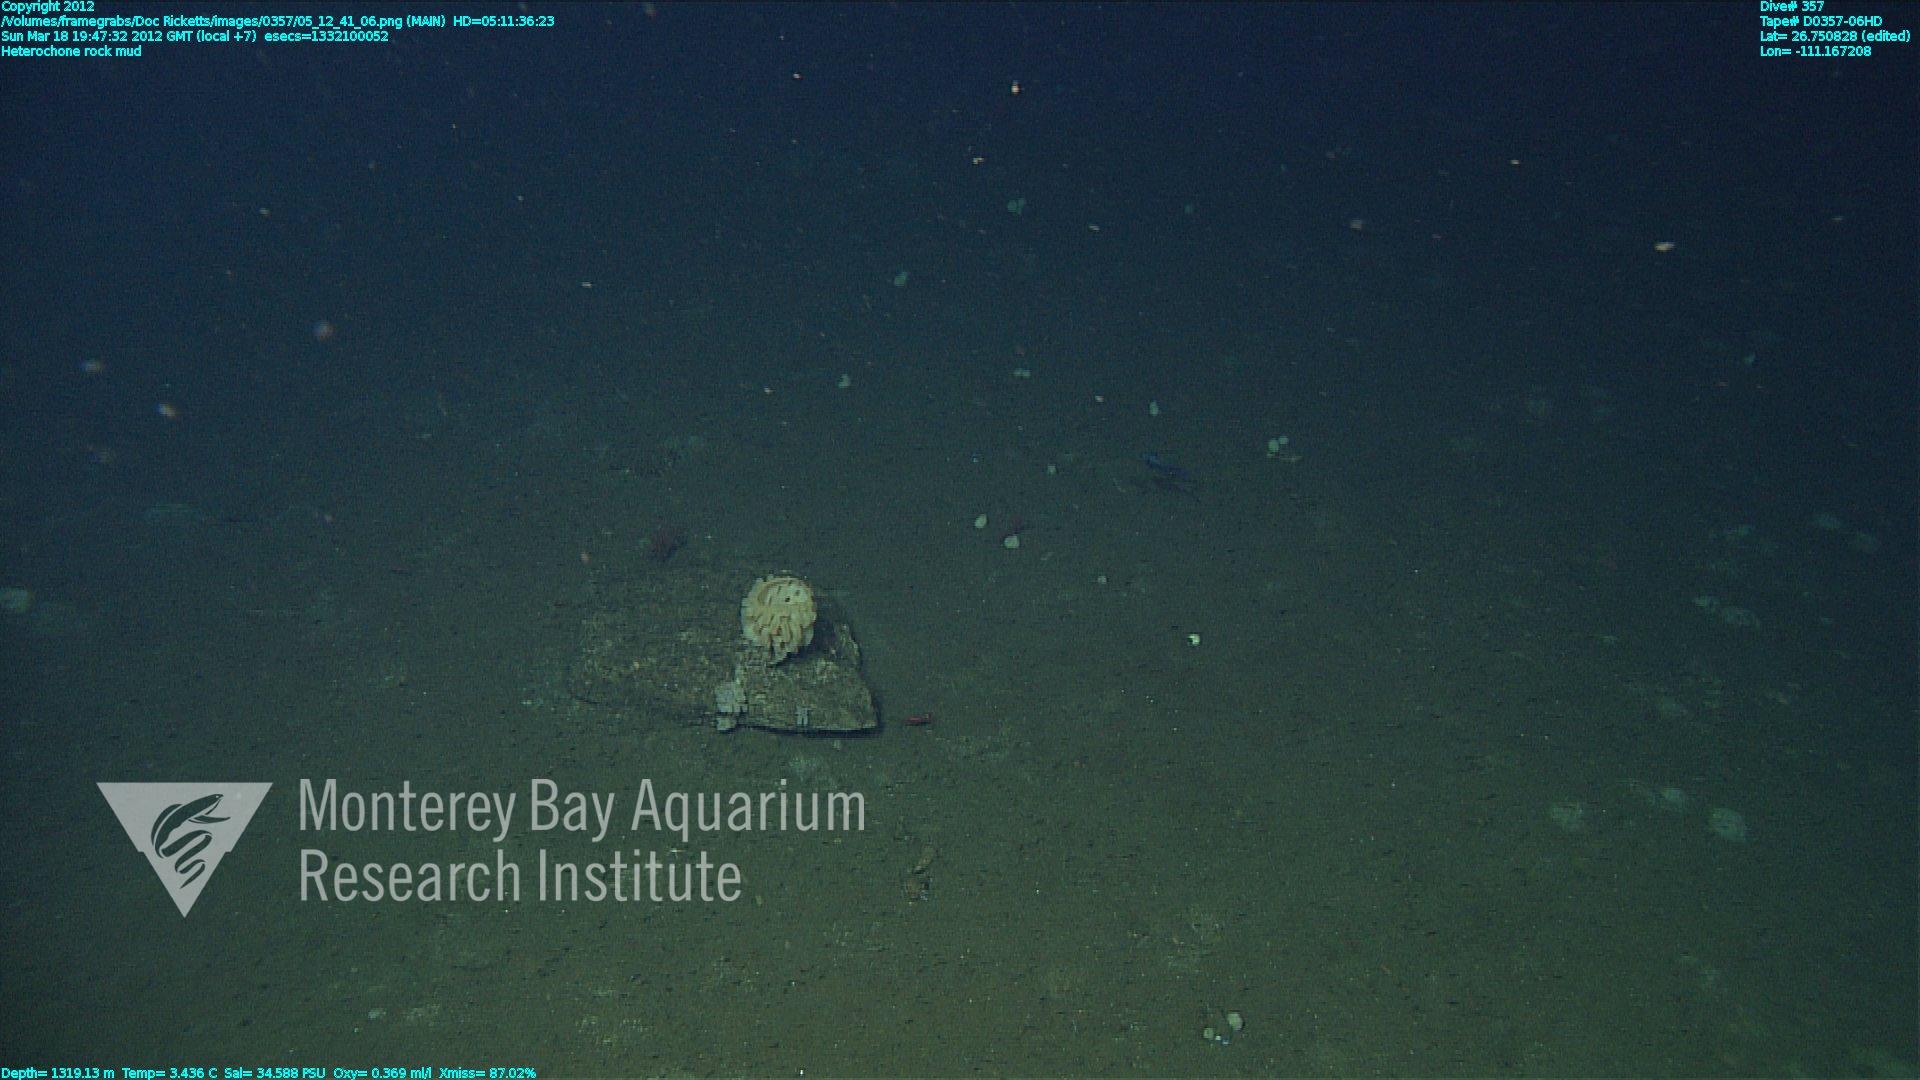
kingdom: Animalia
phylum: Porifera
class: Hexactinellida
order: Sceptrulophora
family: Aphrocallistidae
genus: Heterochone
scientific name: Heterochone
